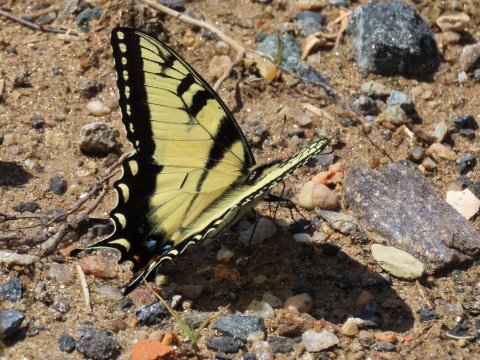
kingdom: Animalia
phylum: Arthropoda
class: Insecta
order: Lepidoptera
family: Papilionidae
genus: Pterourus
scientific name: Pterourus glaucus
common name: Eastern Tiger Swallowtail
